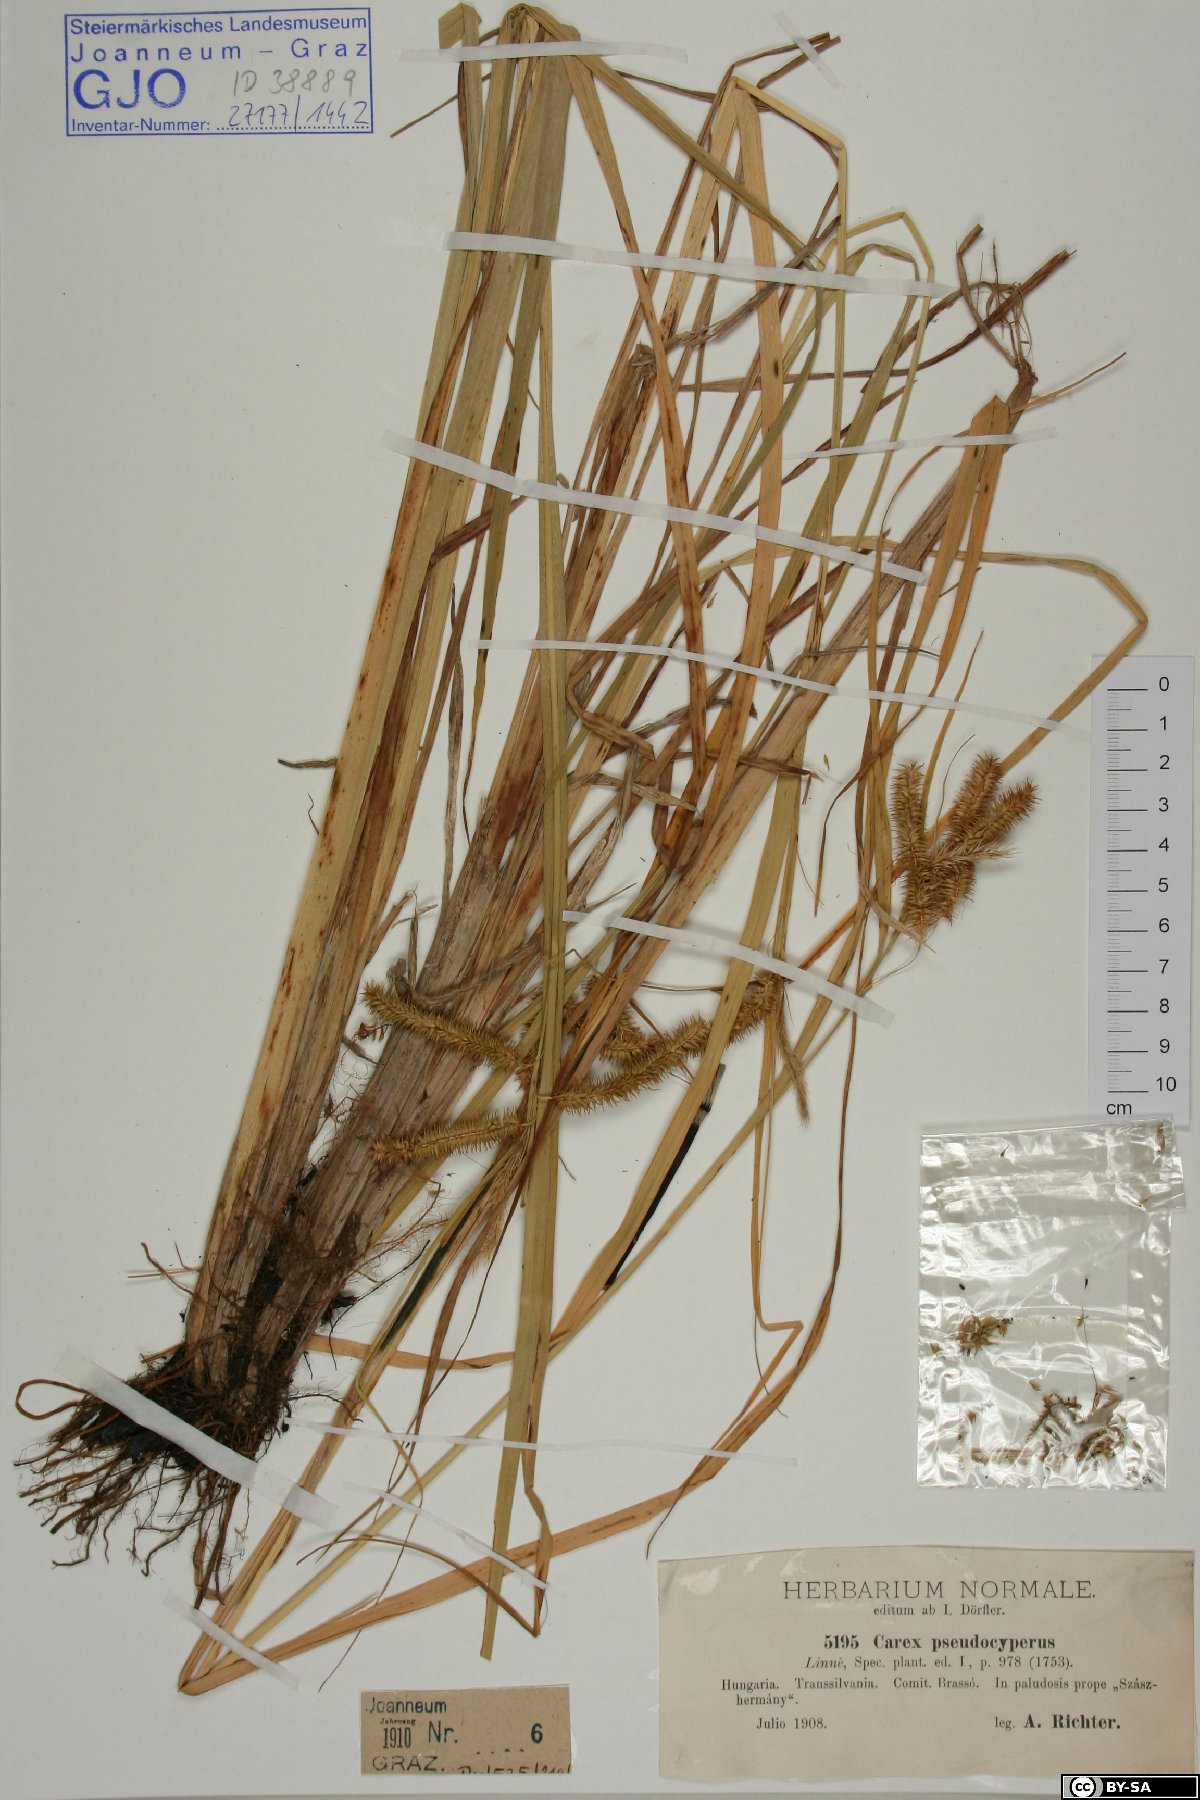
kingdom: Plantae
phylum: Tracheophyta
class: Liliopsida
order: Poales
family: Cyperaceae
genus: Carex
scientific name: Carex pseudocyperus
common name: Cyperus sedge
